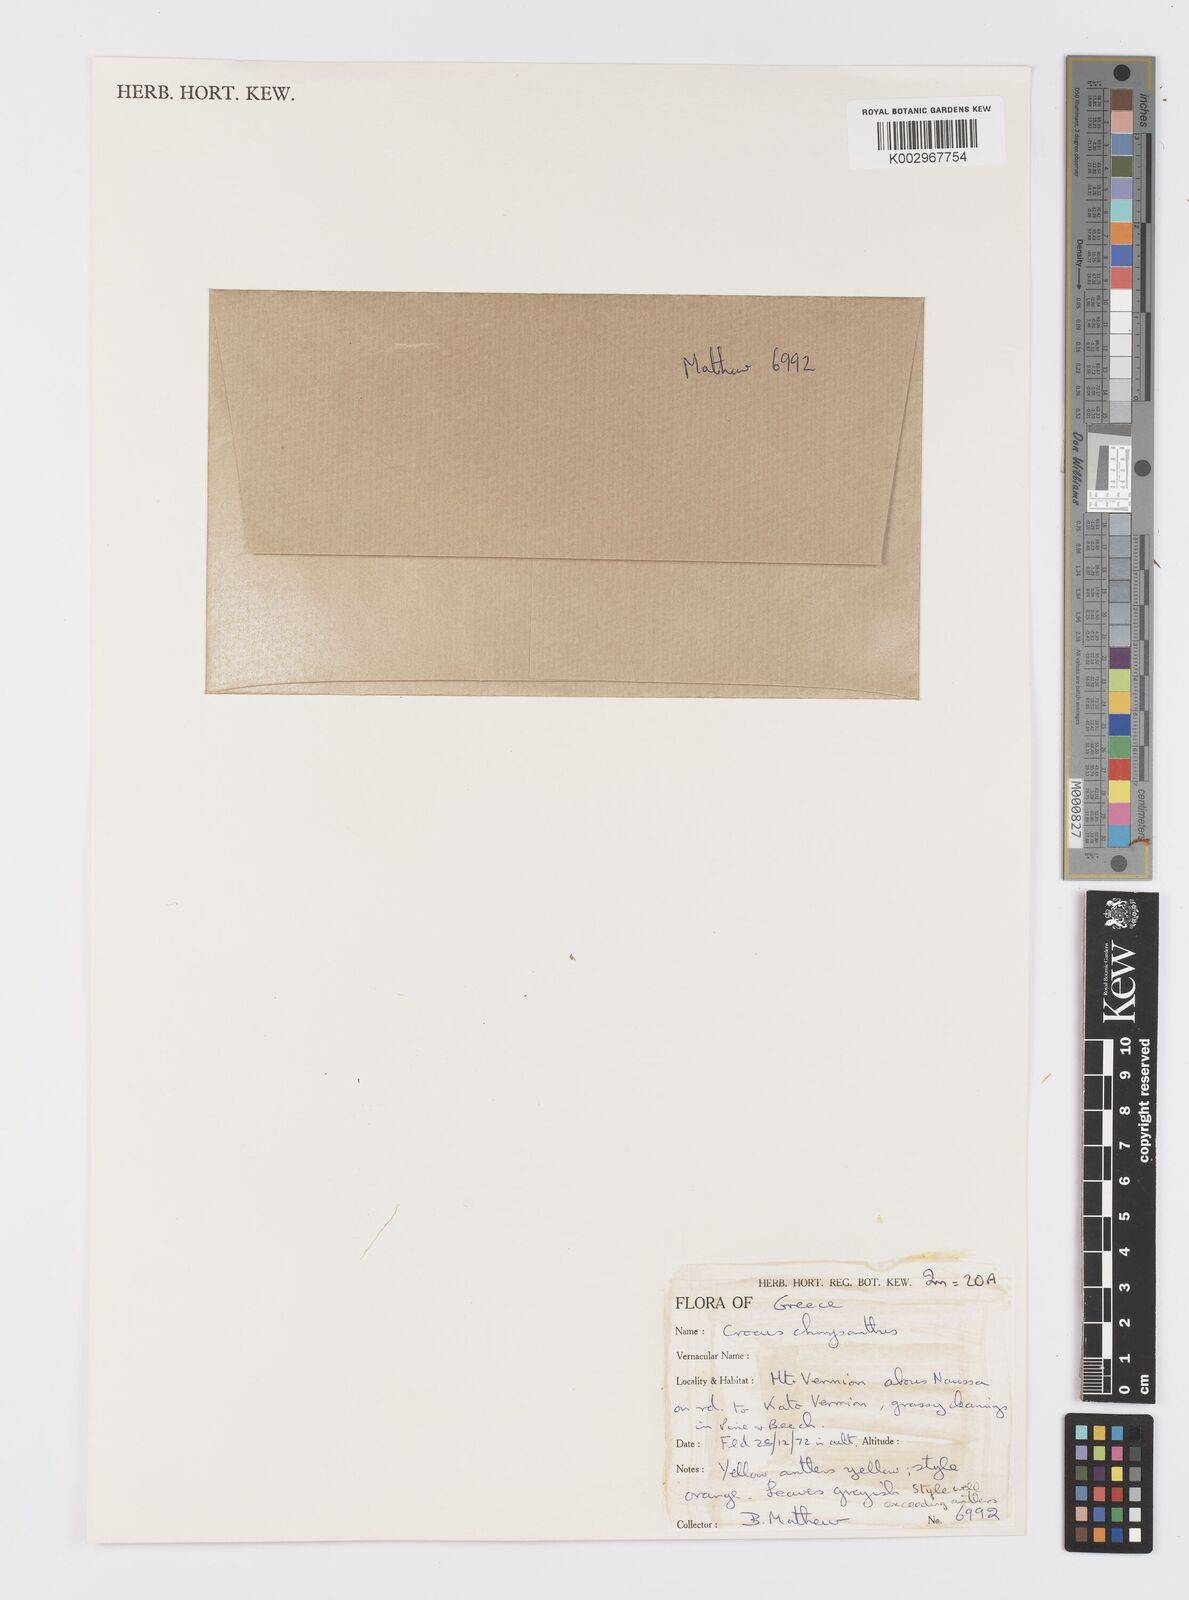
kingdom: Plantae
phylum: Tracheophyta
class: Liliopsida
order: Asparagales
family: Iridaceae
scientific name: Iridaceae
